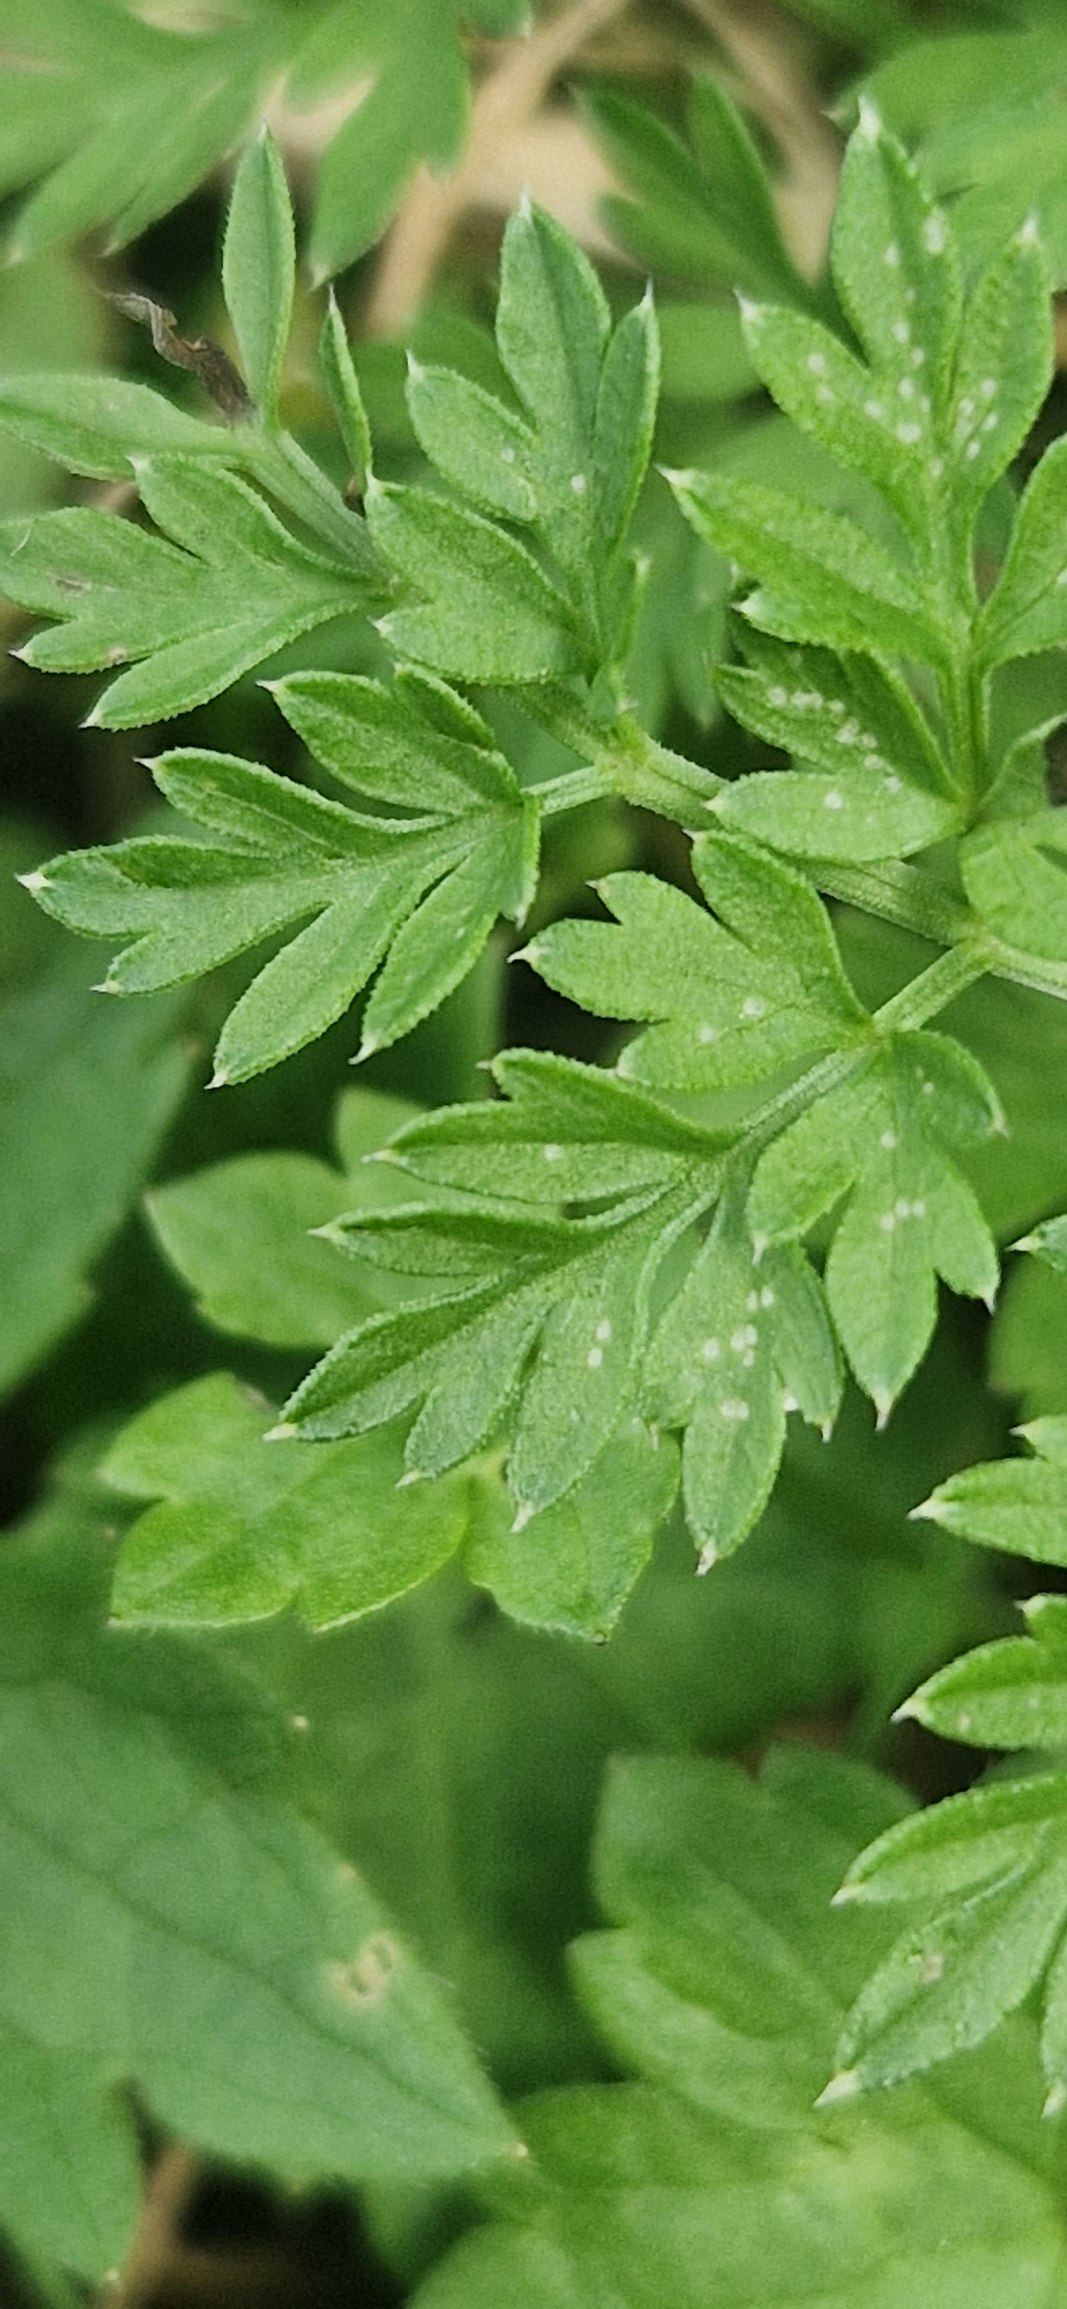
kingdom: Plantae
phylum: Tracheophyta
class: Magnoliopsida
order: Apiales
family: Apiaceae
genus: Selinum
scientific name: Selinum carvifolia
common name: Seline
